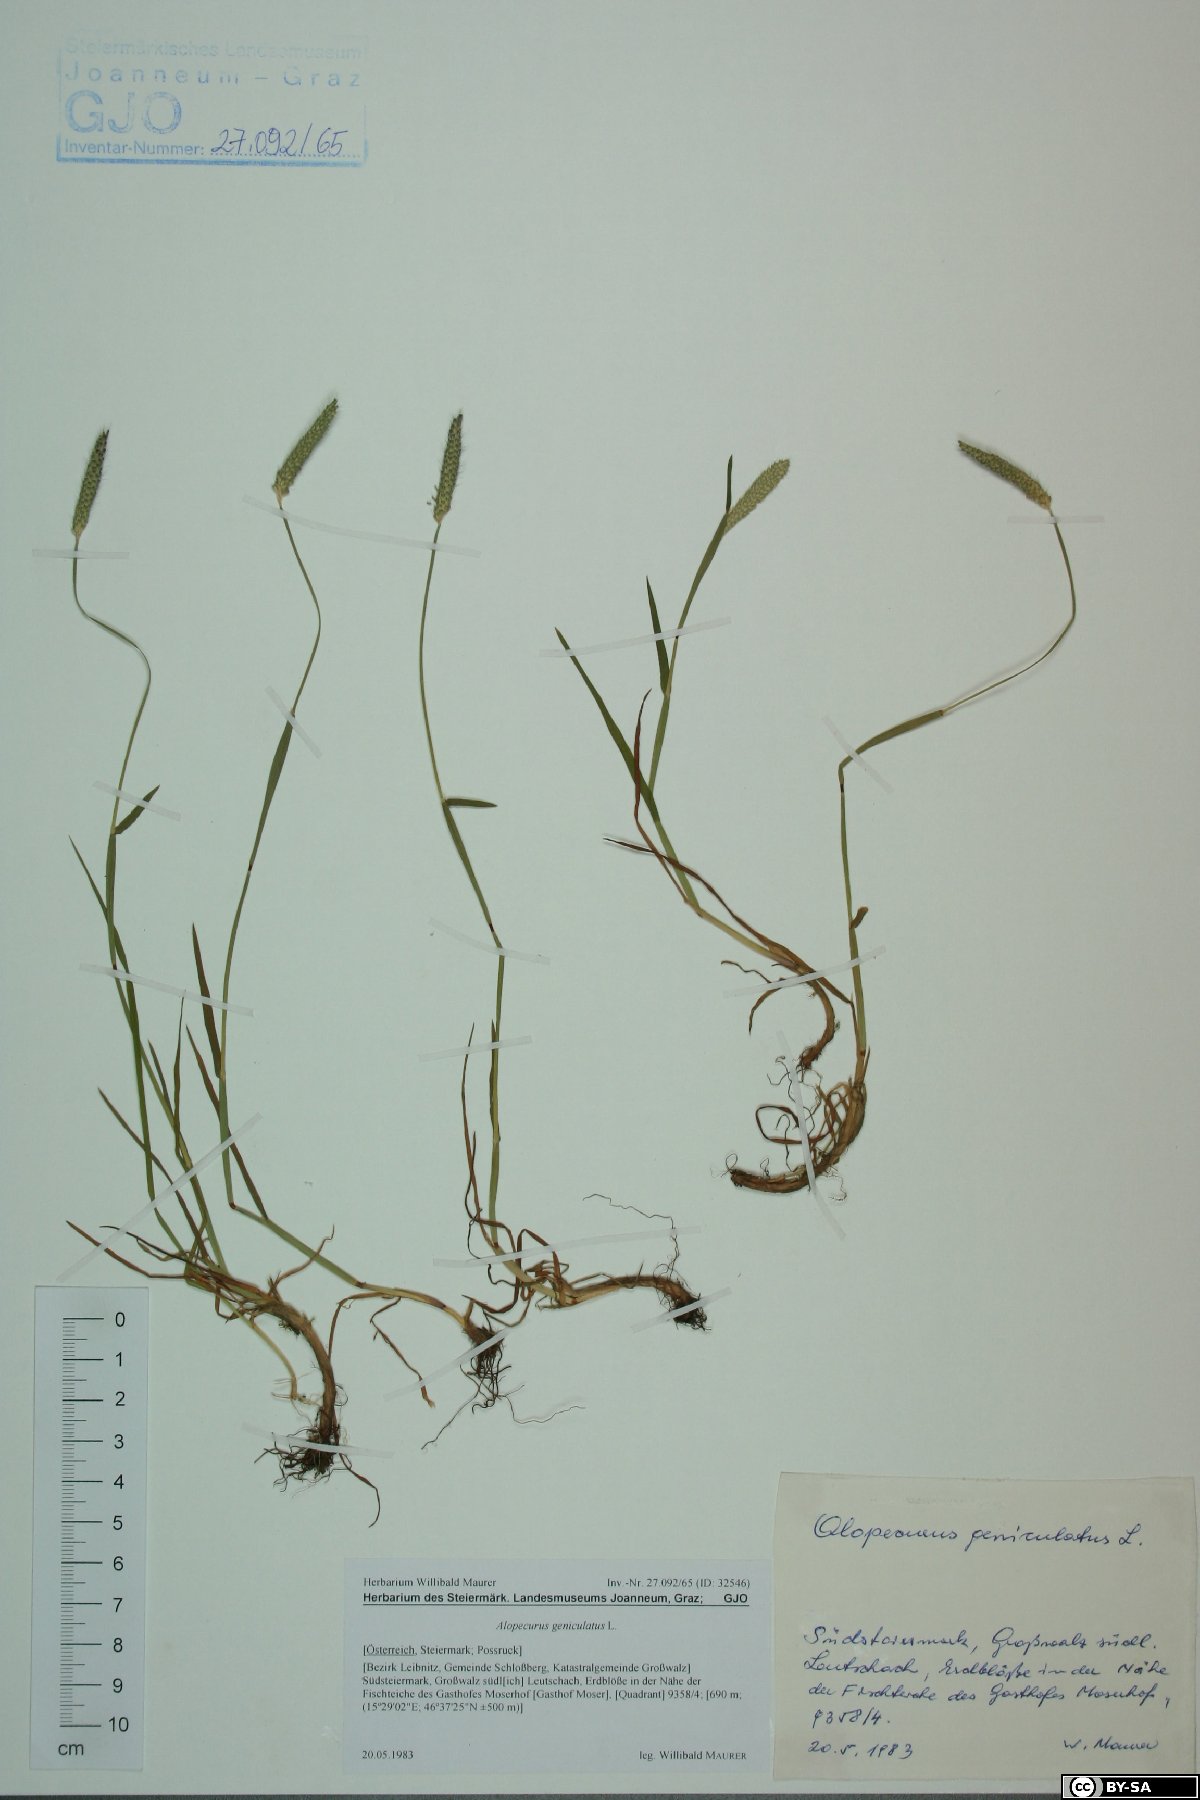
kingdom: Plantae
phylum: Tracheophyta
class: Liliopsida
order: Poales
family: Poaceae
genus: Alopecurus
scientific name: Alopecurus geniculatus
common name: Water foxtail
